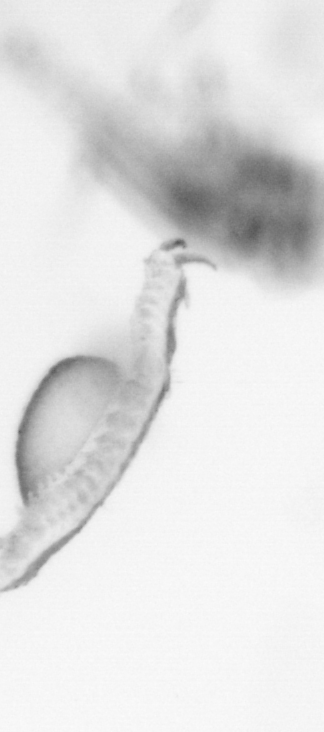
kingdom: Animalia
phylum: Annelida
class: Polychaeta
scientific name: Polychaeta
